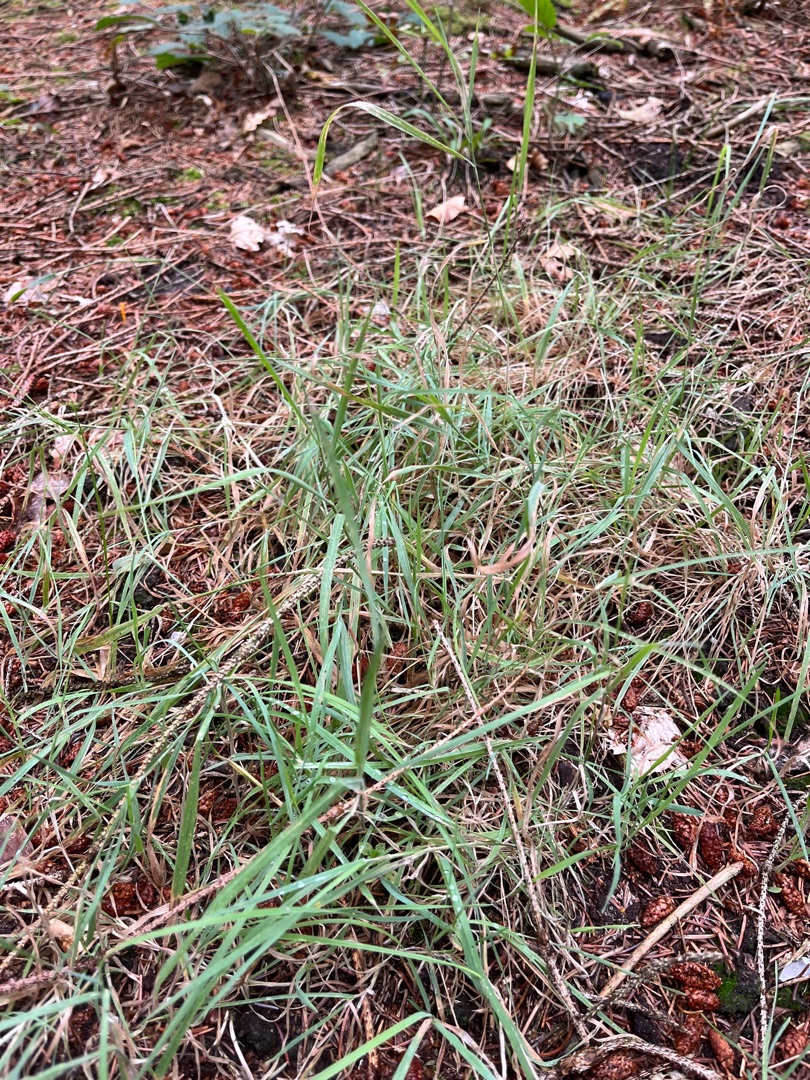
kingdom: Plantae
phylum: Tracheophyta
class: Liliopsida
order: Poales
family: Poaceae
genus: Holcus
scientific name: Holcus mollis
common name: Krybende hestegræs
